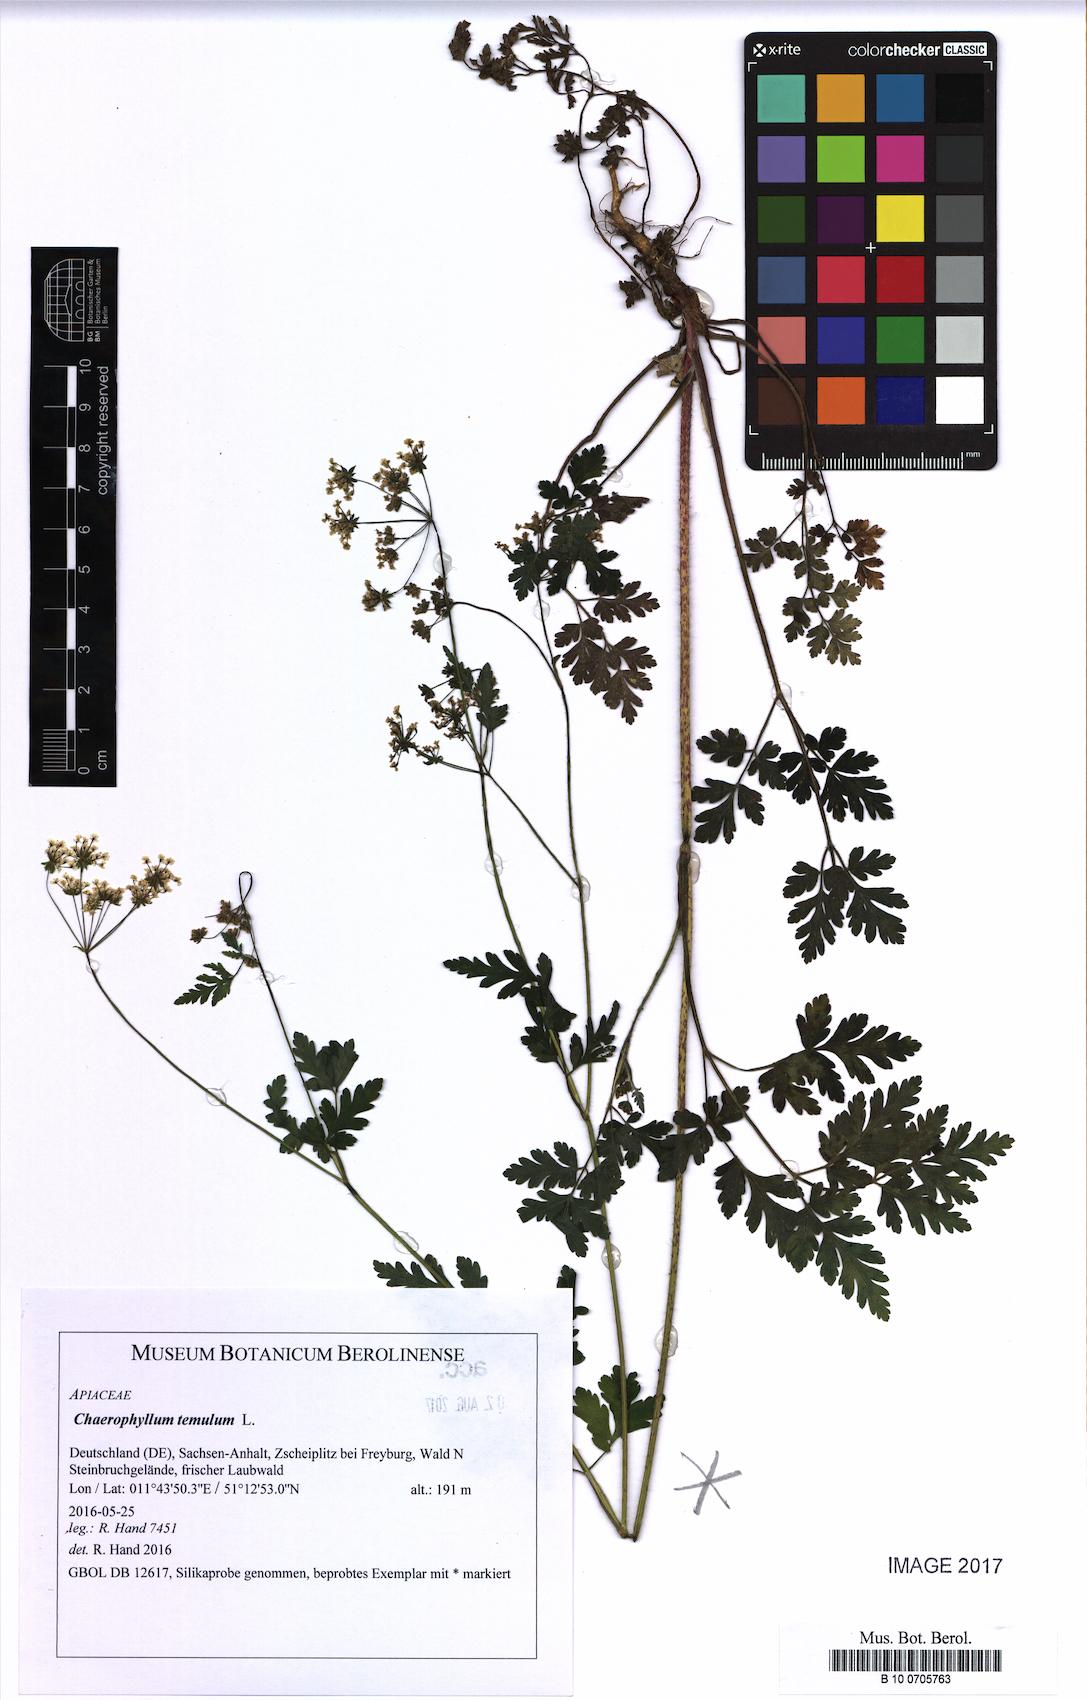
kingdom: Plantae
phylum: Tracheophyta
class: Magnoliopsida
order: Apiales
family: Apiaceae
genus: Chaerophyllum
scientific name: Chaerophyllum temulum
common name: Rough chervil
